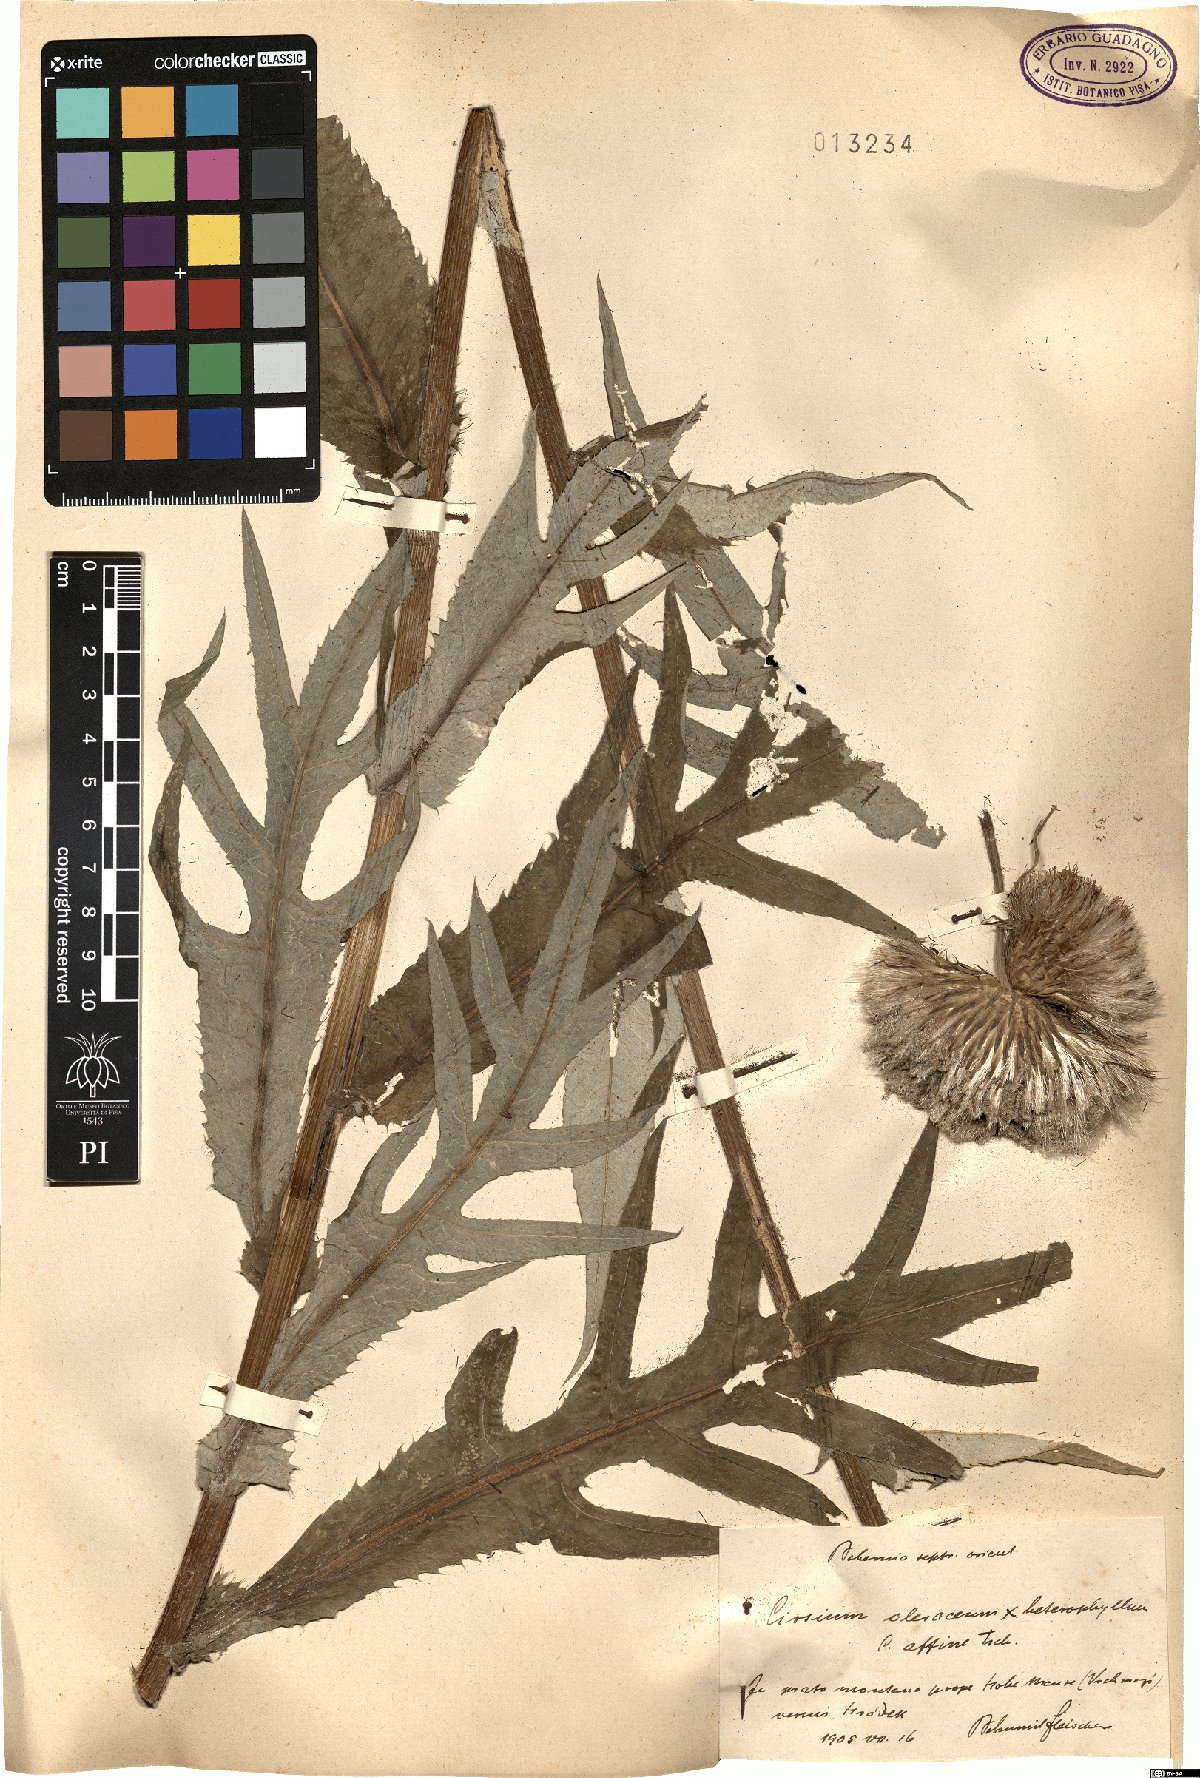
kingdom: Plantae
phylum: Tracheophyta
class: Magnoliopsida
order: Asterales
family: Asteraceae
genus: Cirsium
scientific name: Cirsium affine
